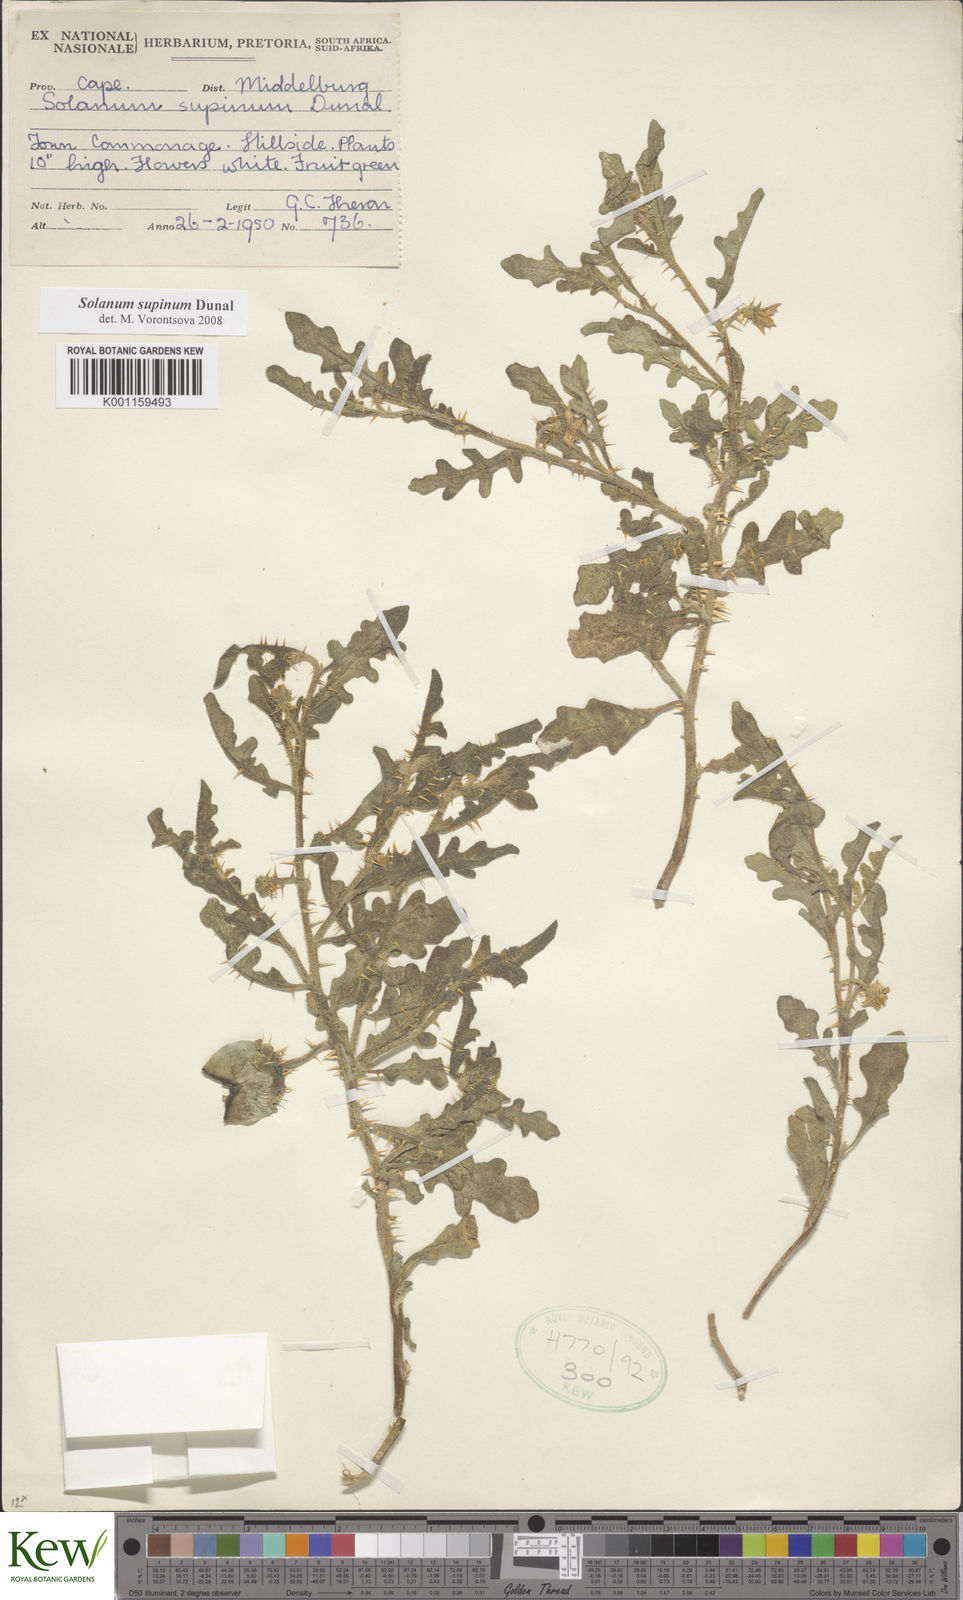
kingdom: Plantae
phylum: Tracheophyta
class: Magnoliopsida
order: Solanales
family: Solanaceae
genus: Solanum
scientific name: Solanum supinum
